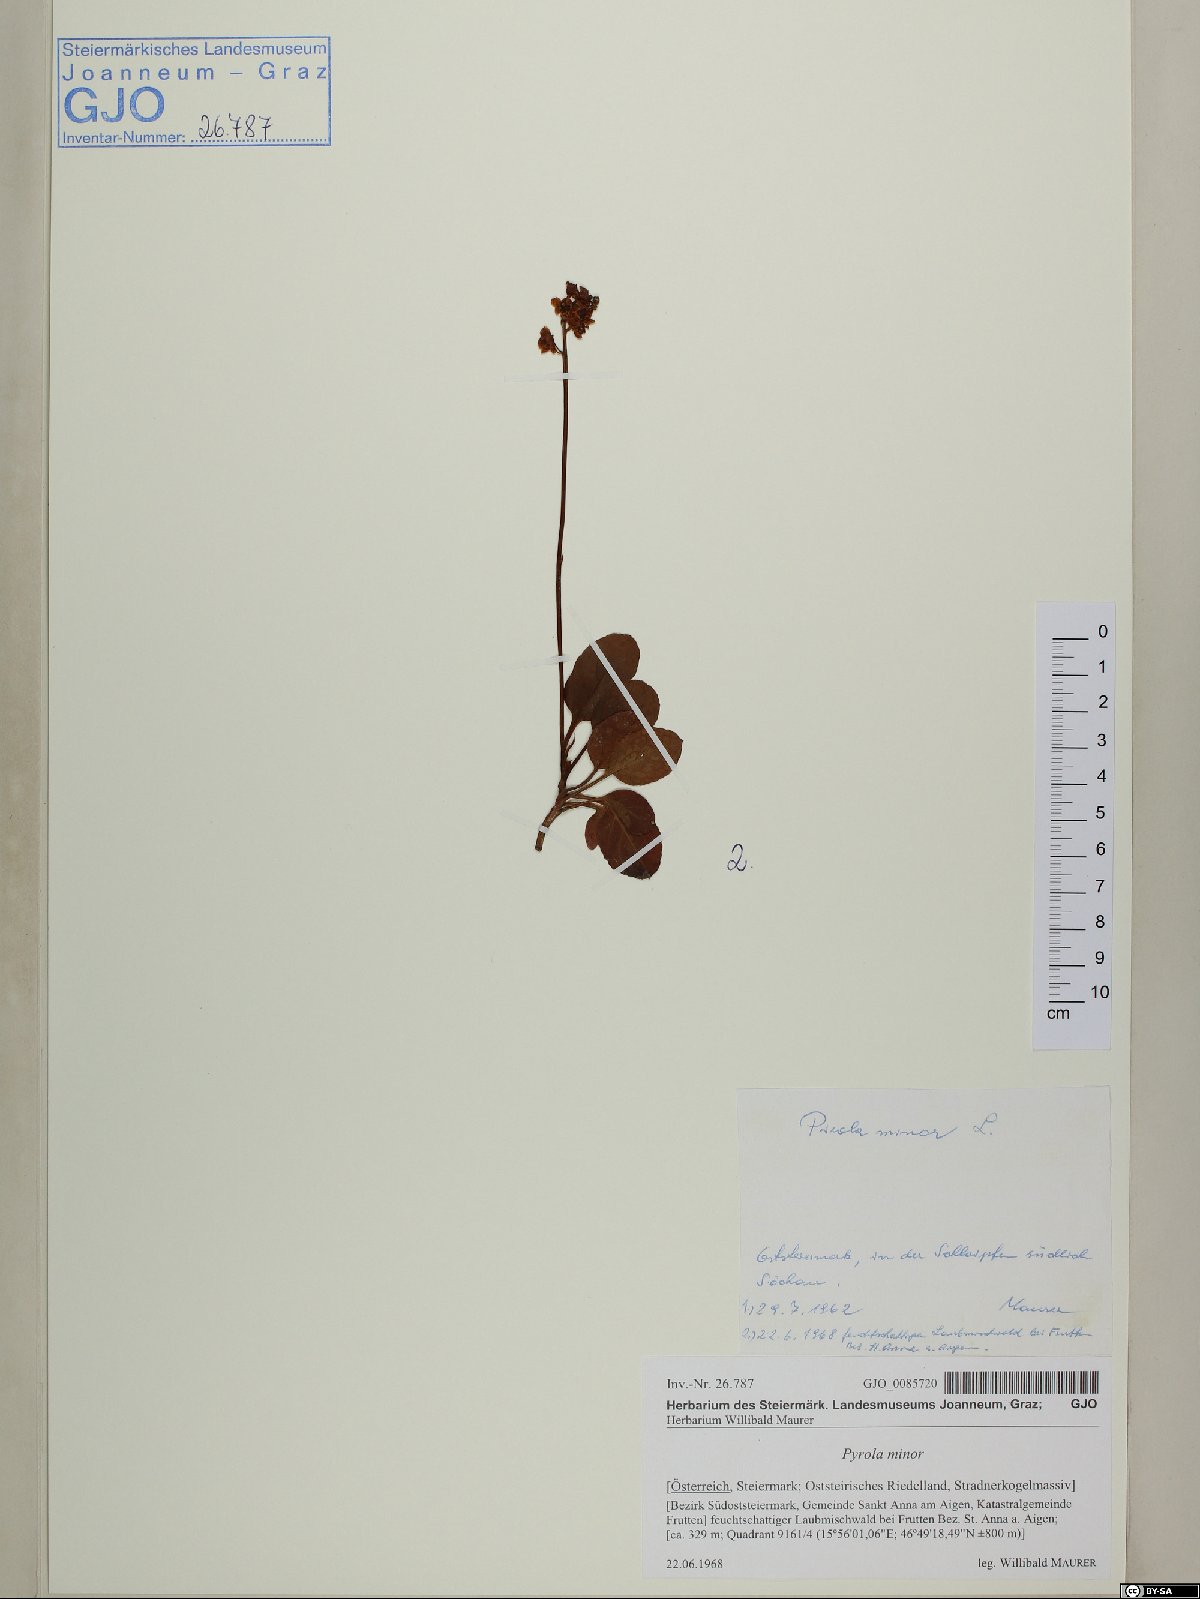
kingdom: Plantae
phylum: Tracheophyta
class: Magnoliopsida
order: Ericales
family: Ericaceae
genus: Pyrola
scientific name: Pyrola minor
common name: Common wintergreen
